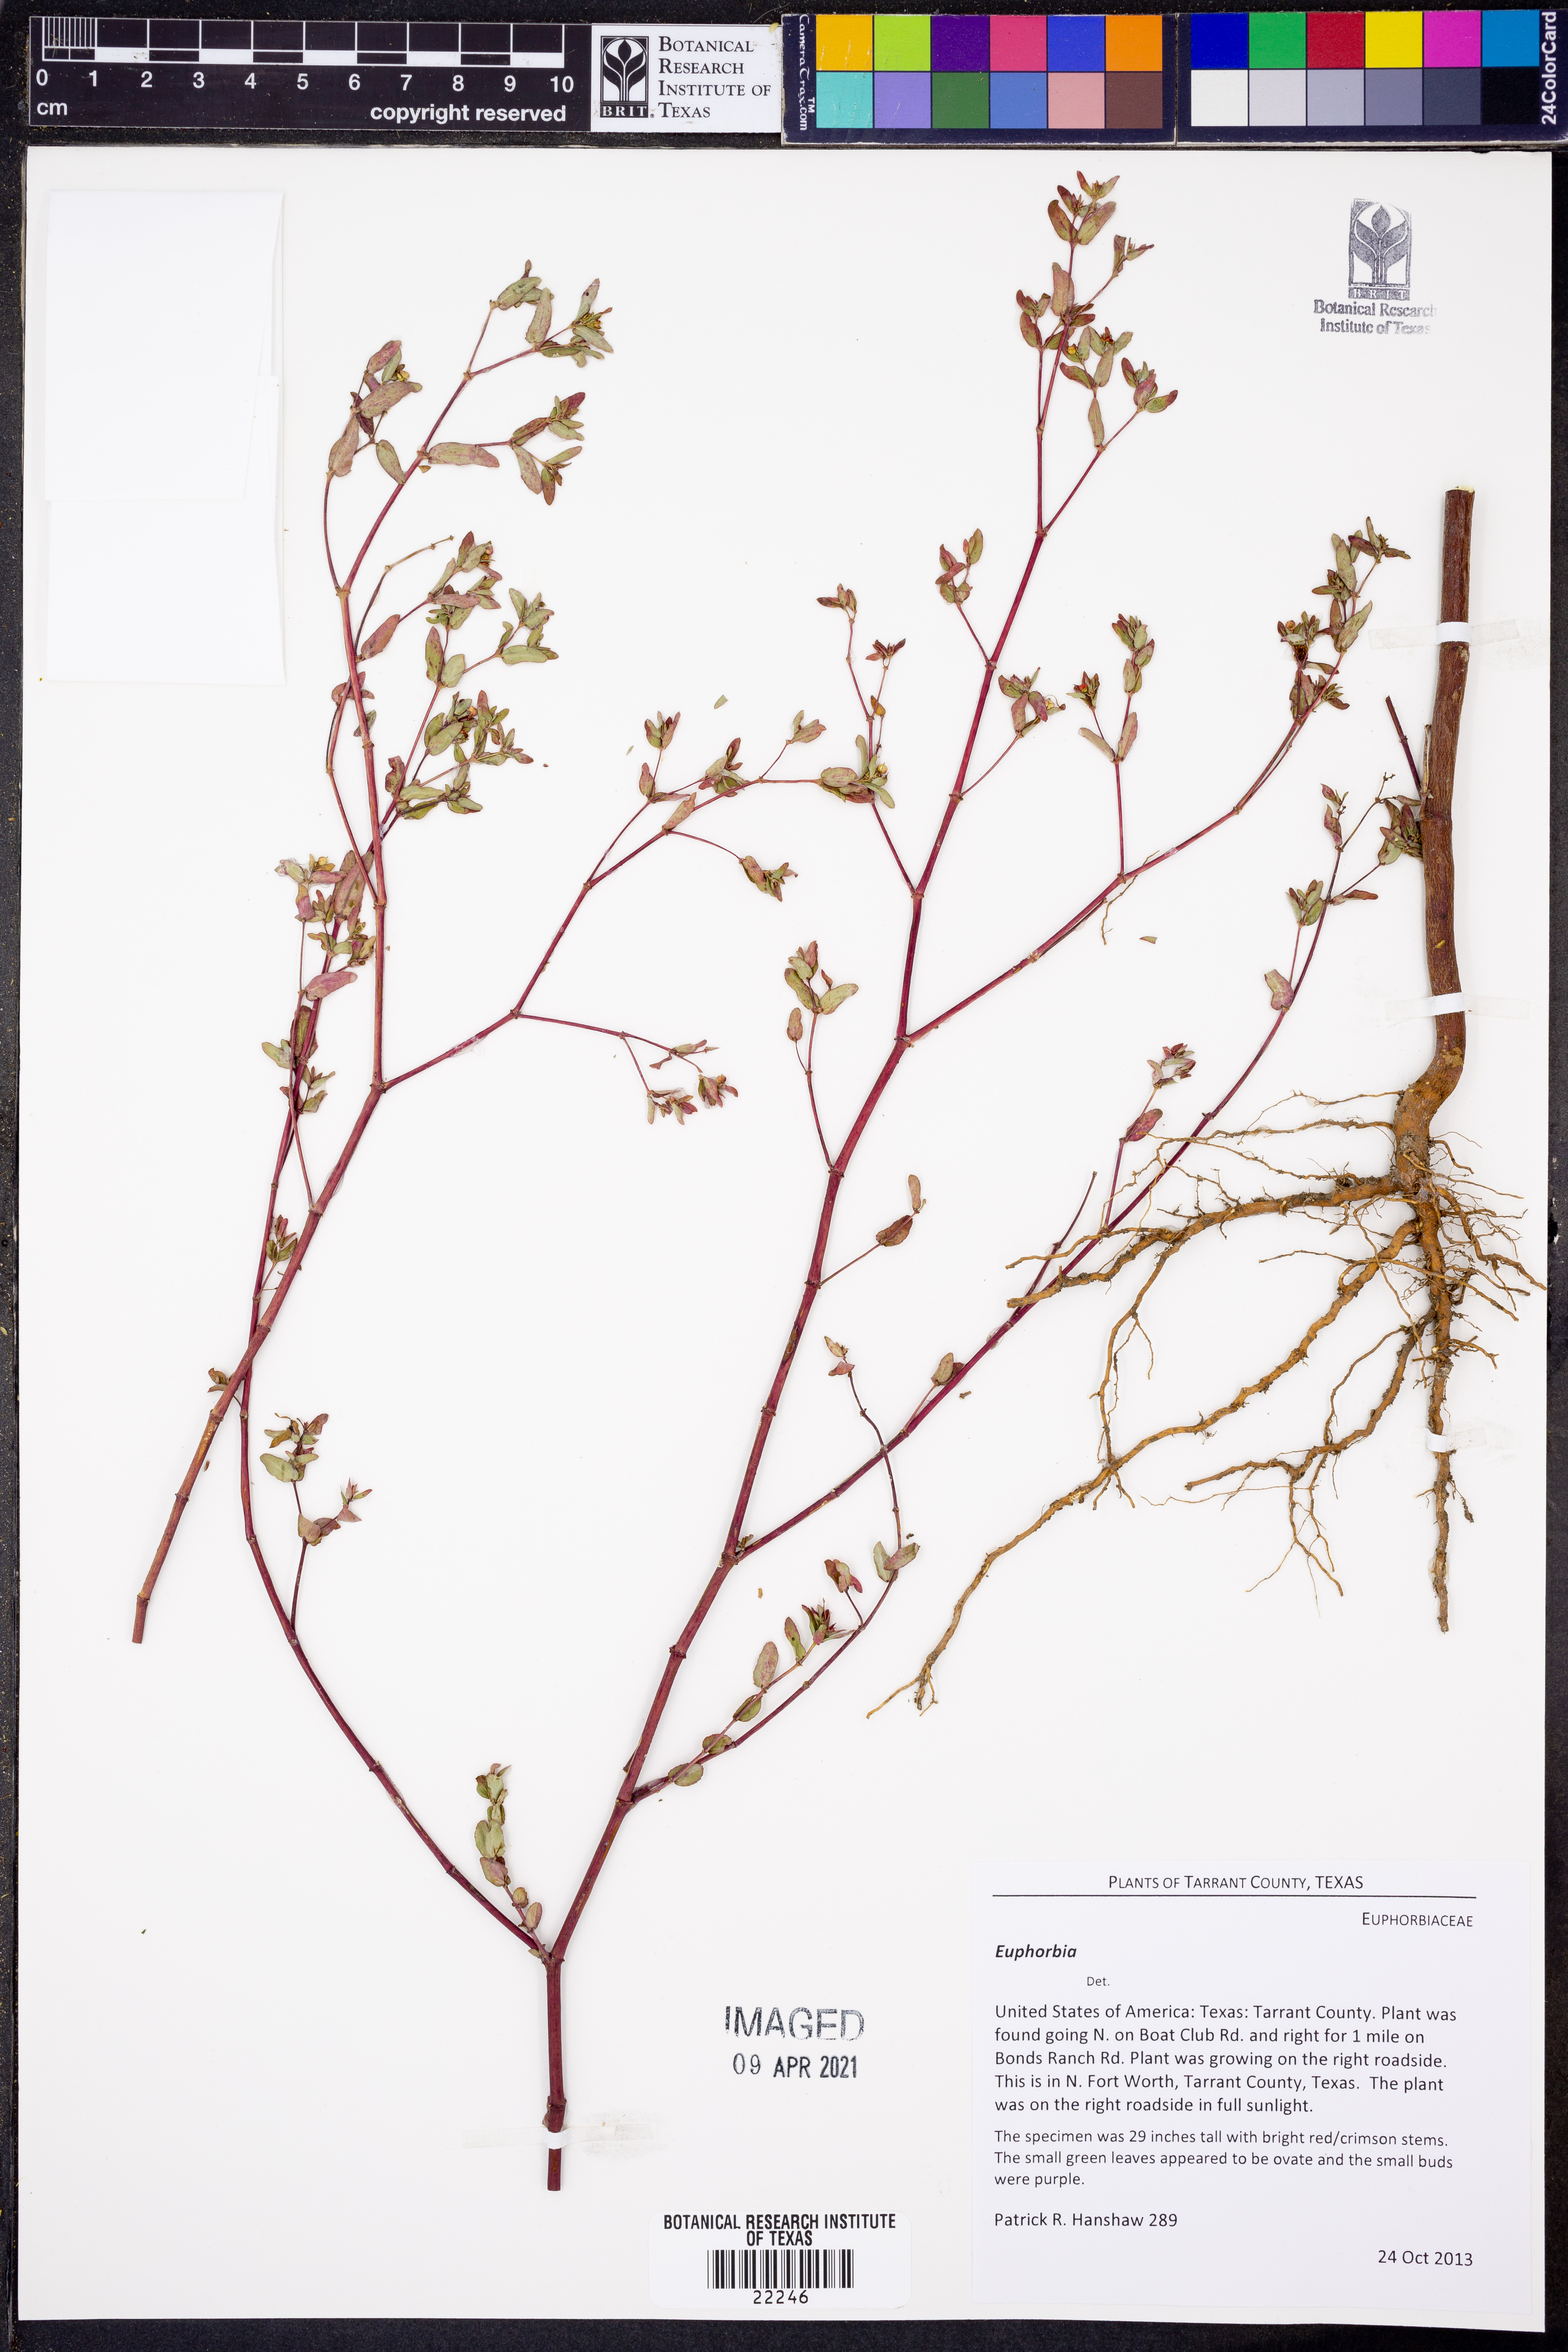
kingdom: Plantae
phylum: Tracheophyta
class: Magnoliopsida
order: Malpighiales
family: Euphorbiaceae
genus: Euphorbia
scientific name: Euphorbia
